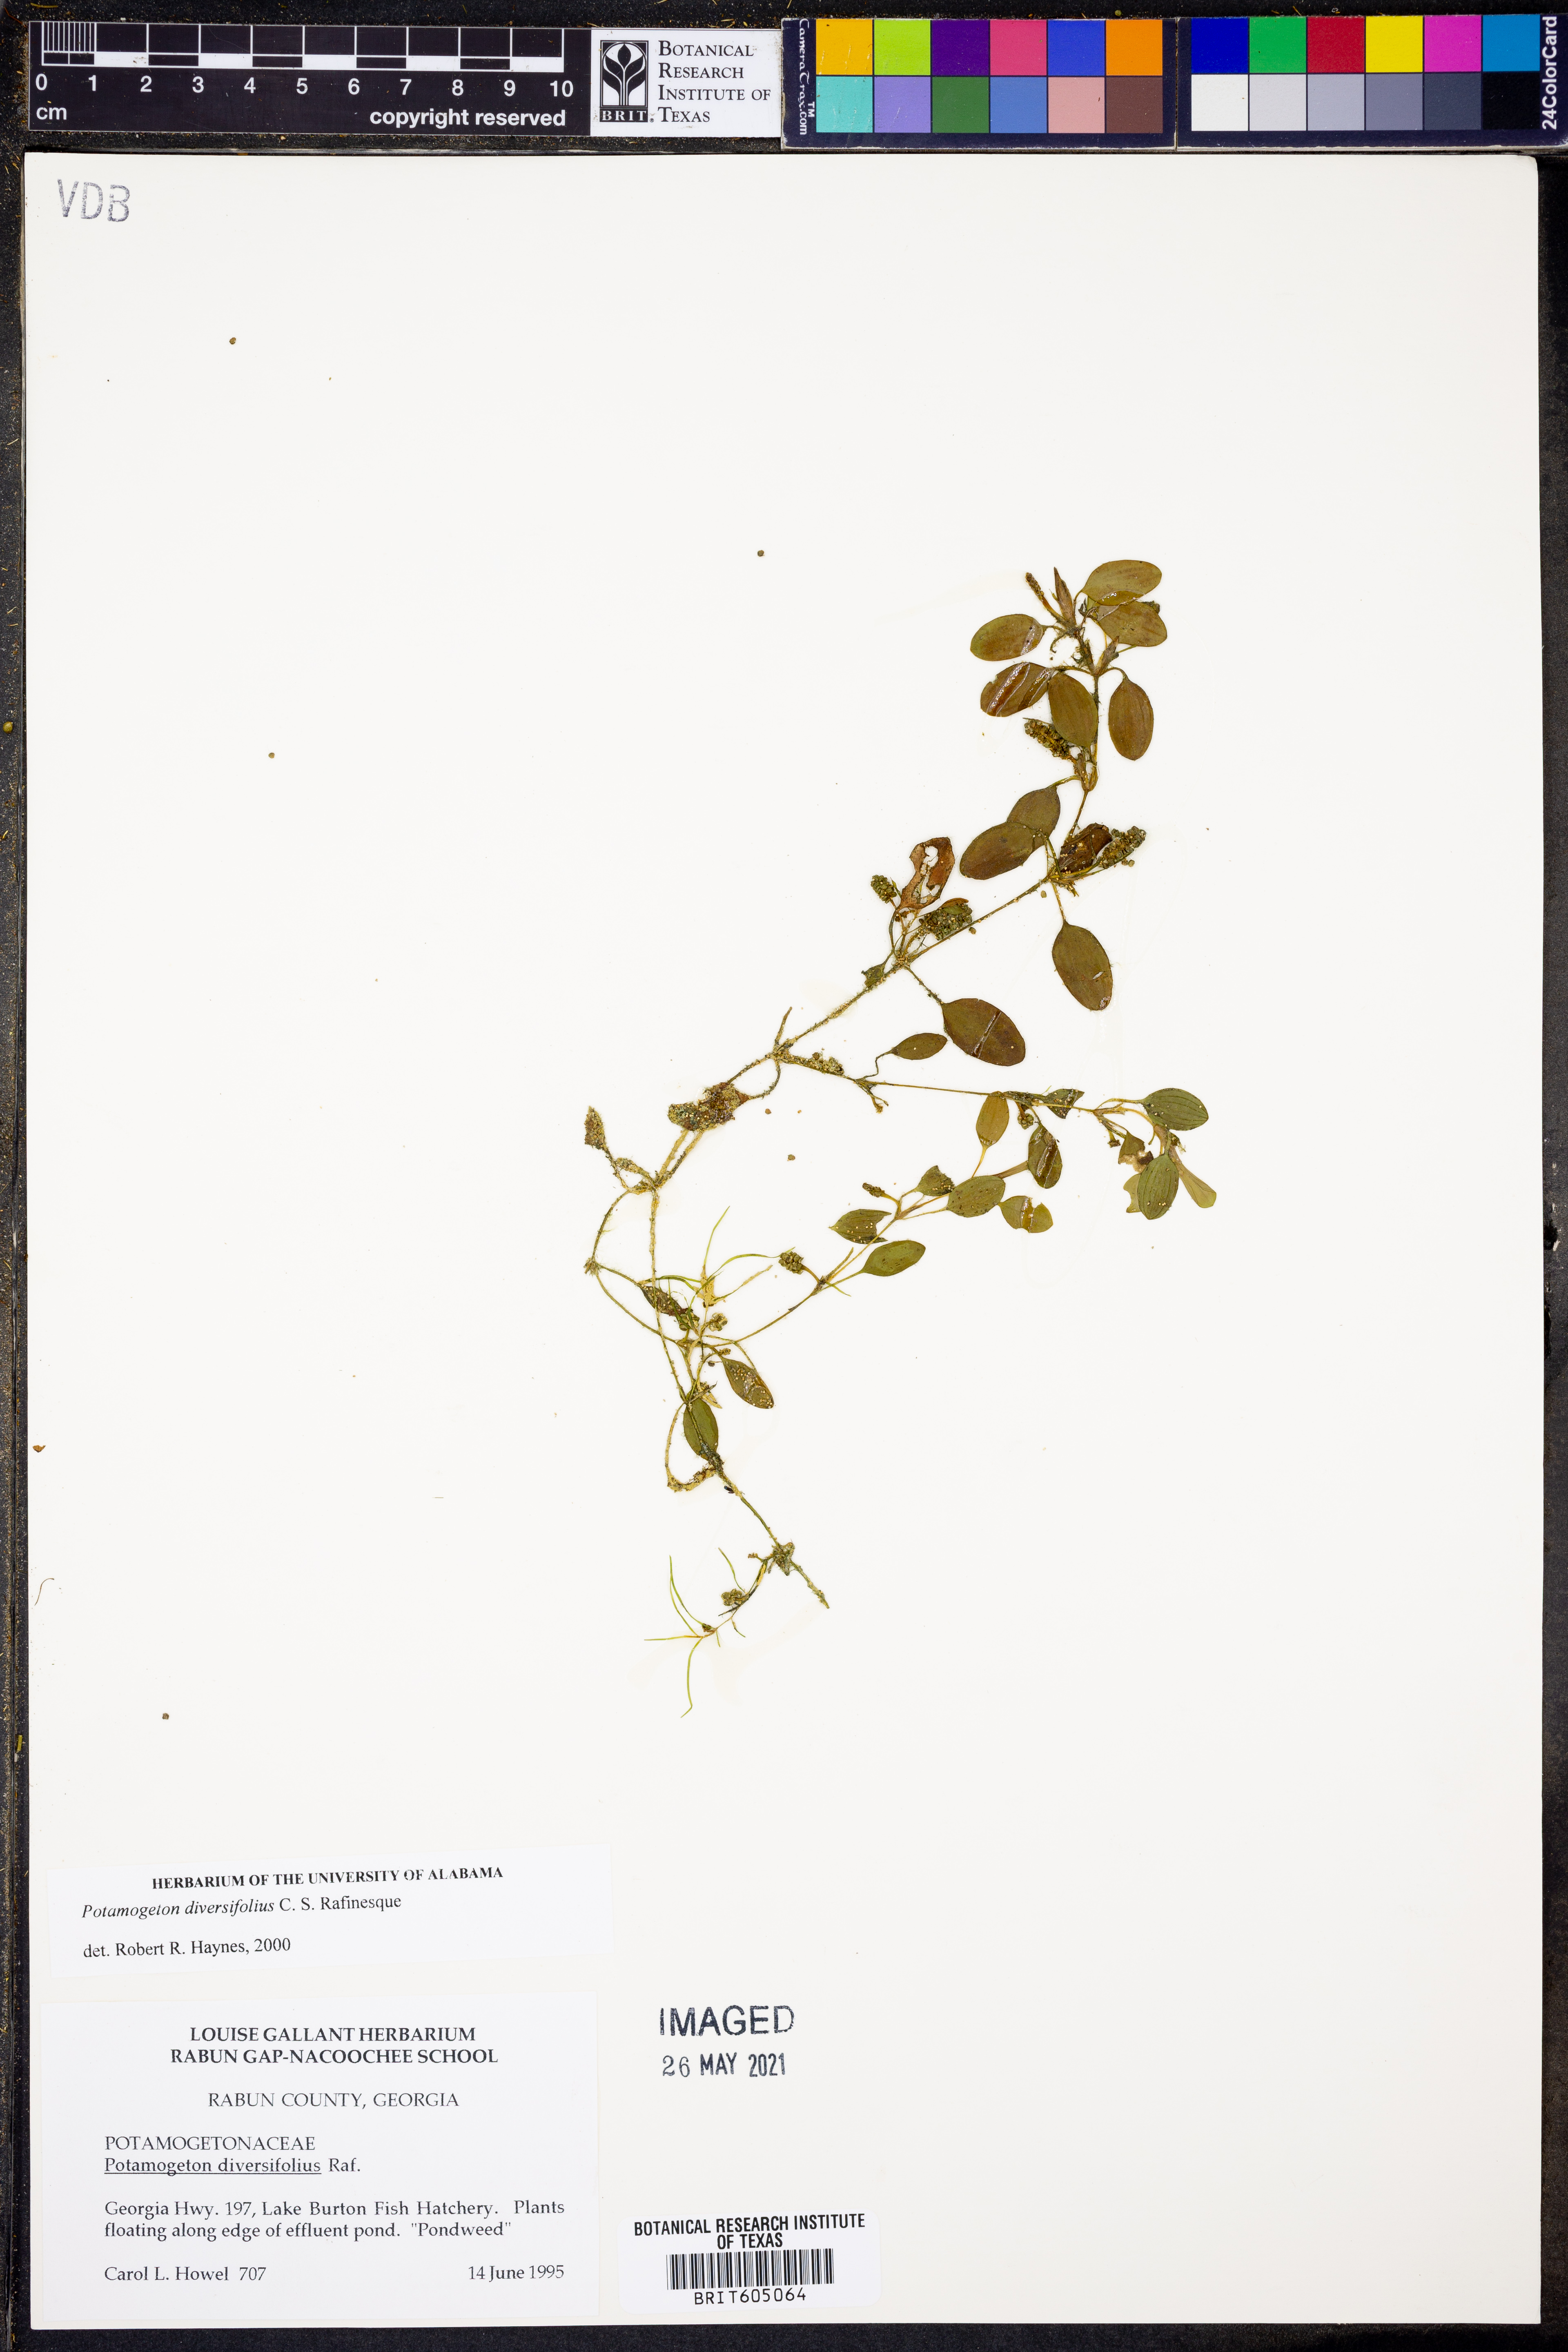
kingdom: Plantae
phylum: Tracheophyta
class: Liliopsida
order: Alismatales
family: Potamogetonaceae
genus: Potamogeton
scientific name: Potamogeton diversifolius
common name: Water-thread pondweed
